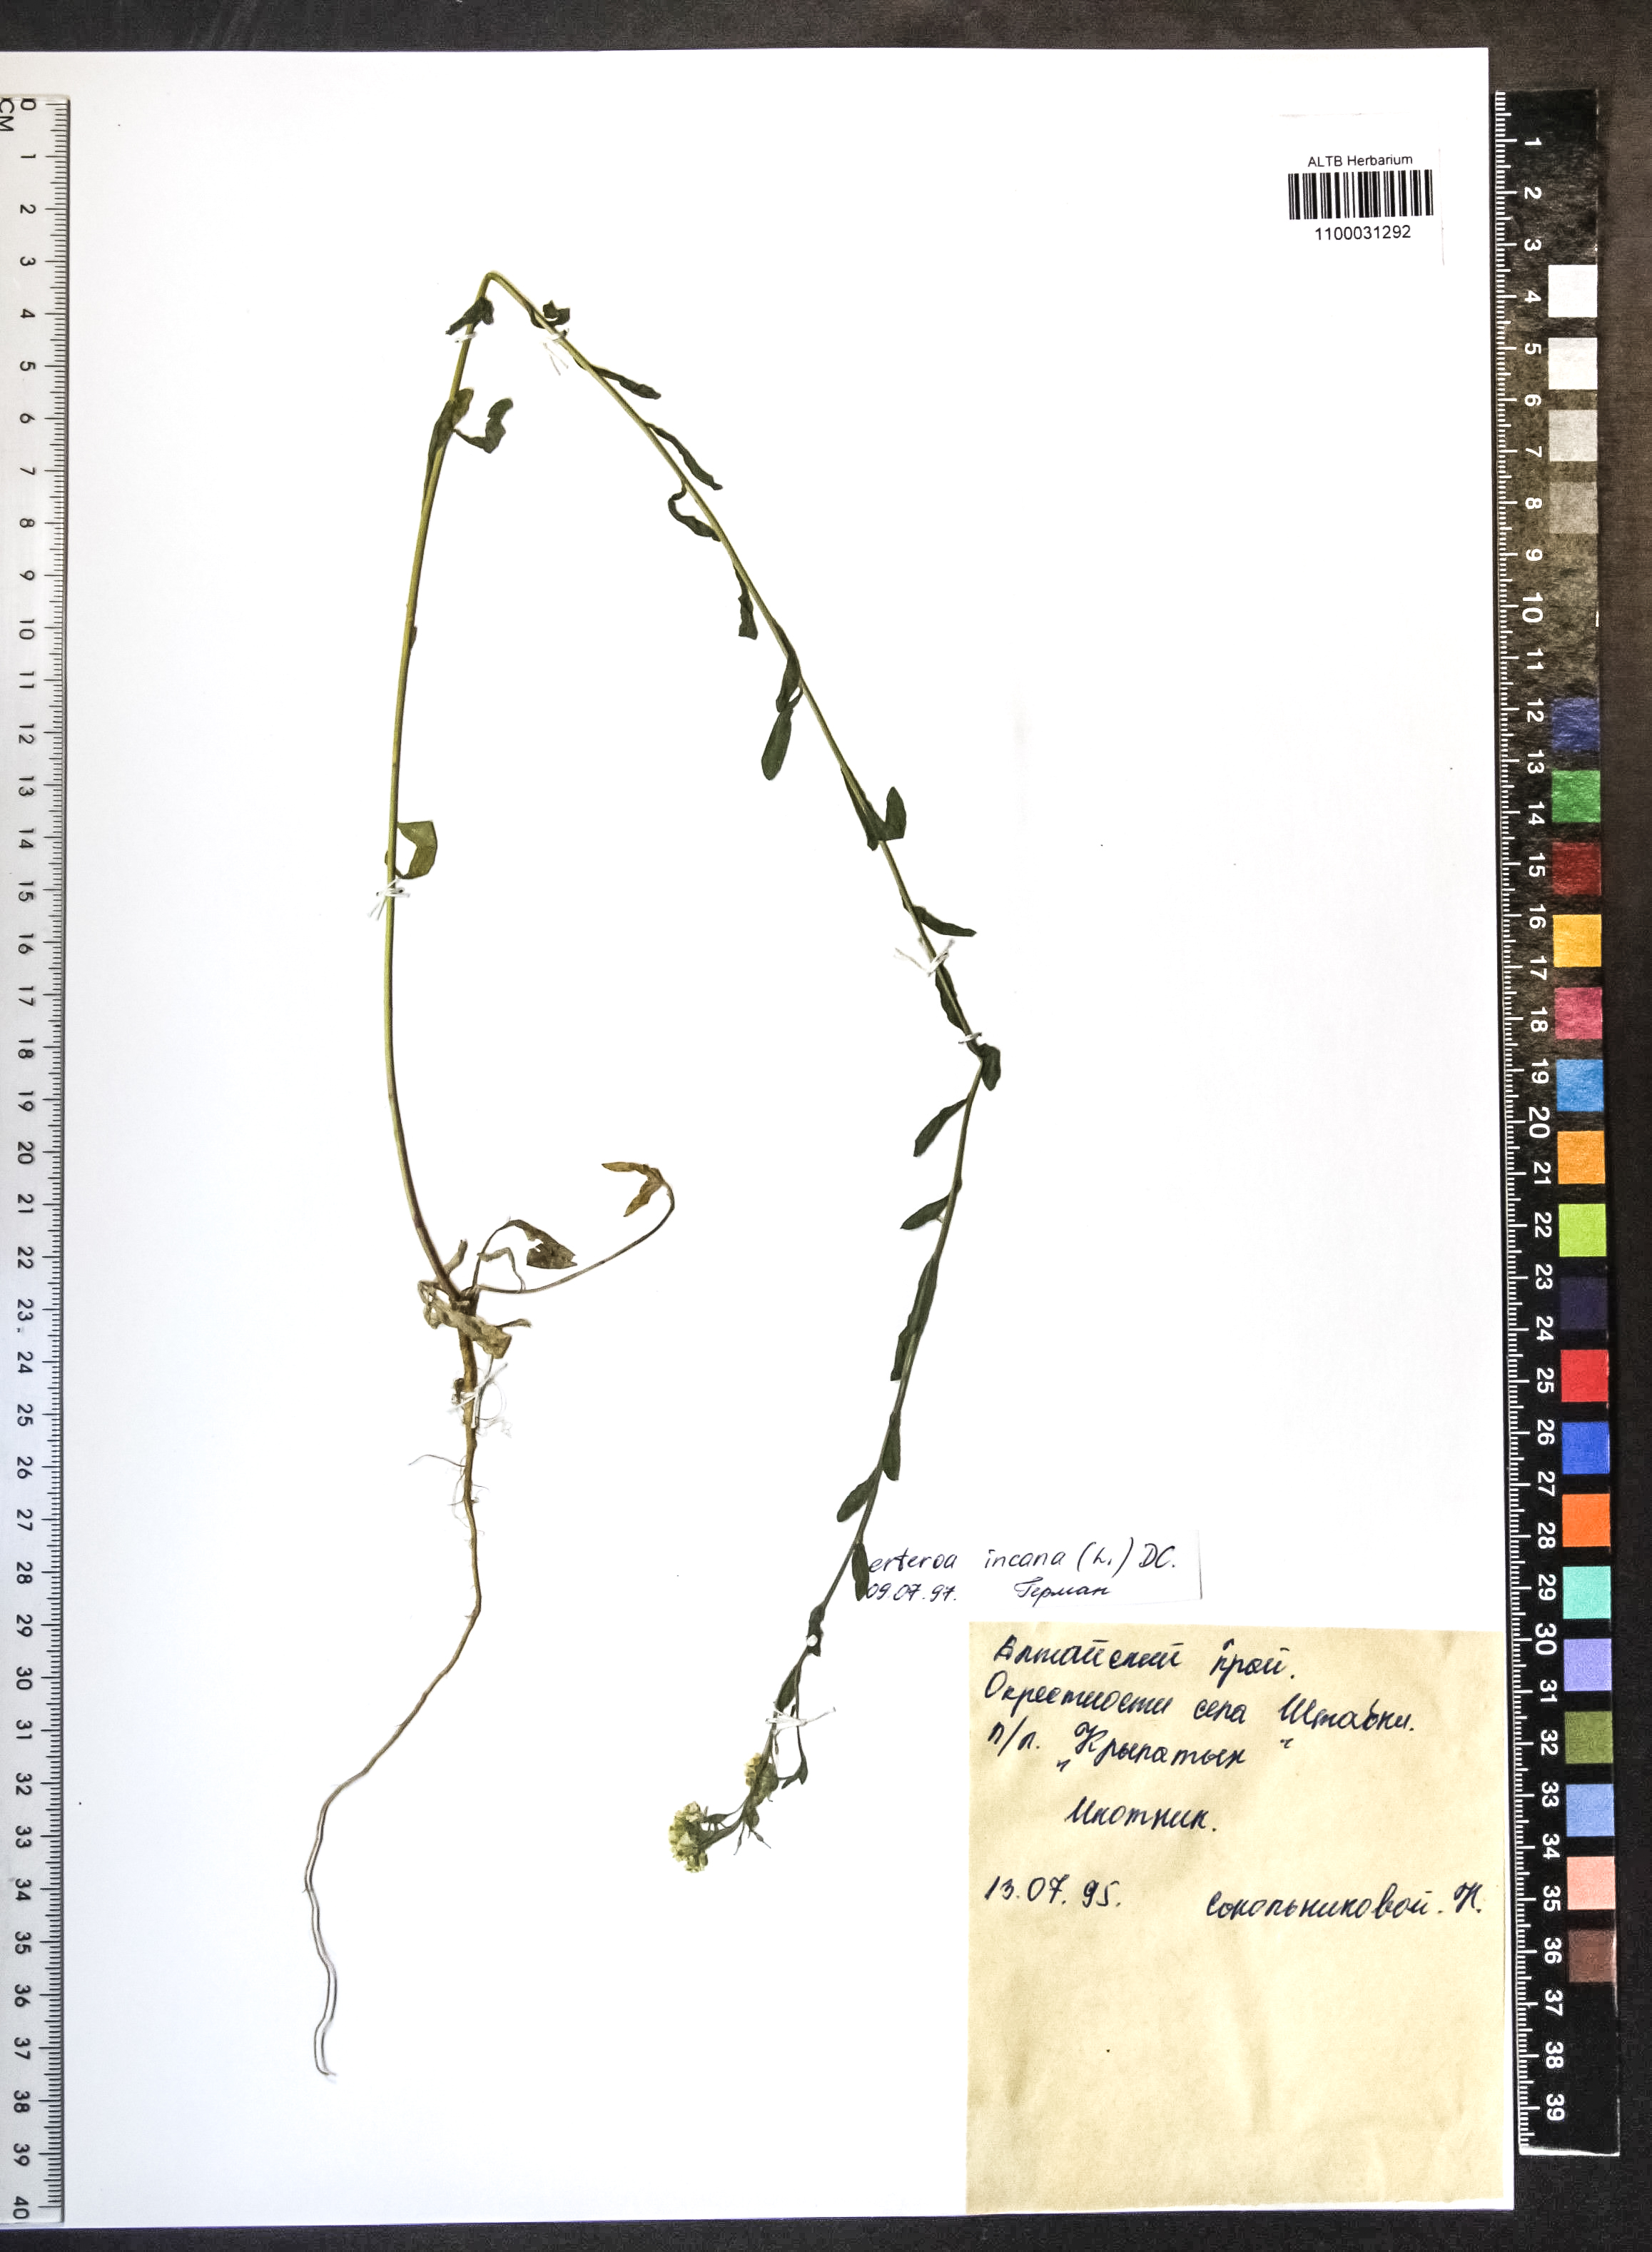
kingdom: Plantae
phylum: Tracheophyta
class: Magnoliopsida
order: Brassicales
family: Brassicaceae
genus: Berteroa
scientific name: Berteroa incana
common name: Hoary alison
